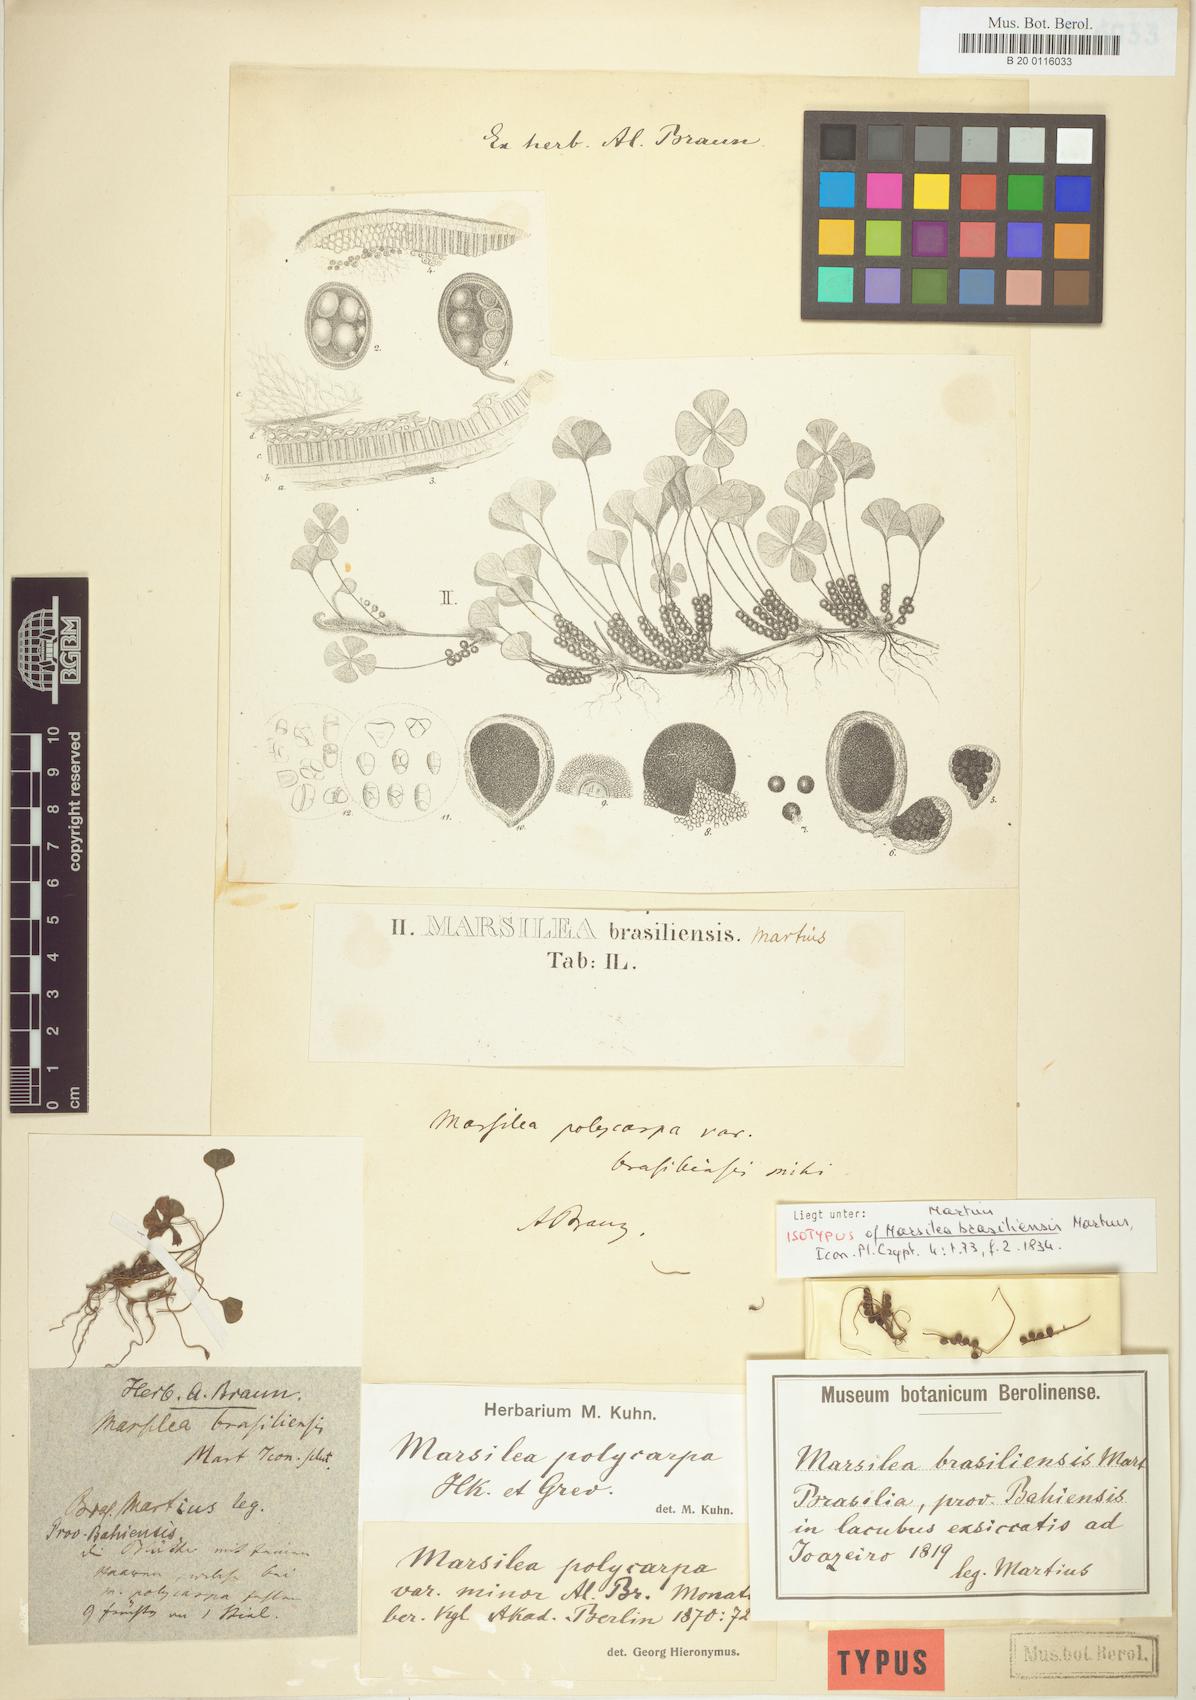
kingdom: Plantae
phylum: Tracheophyta
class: Polypodiopsida
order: Salviniales
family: Marsileaceae
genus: Marsilea
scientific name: Marsilea polycarpa
